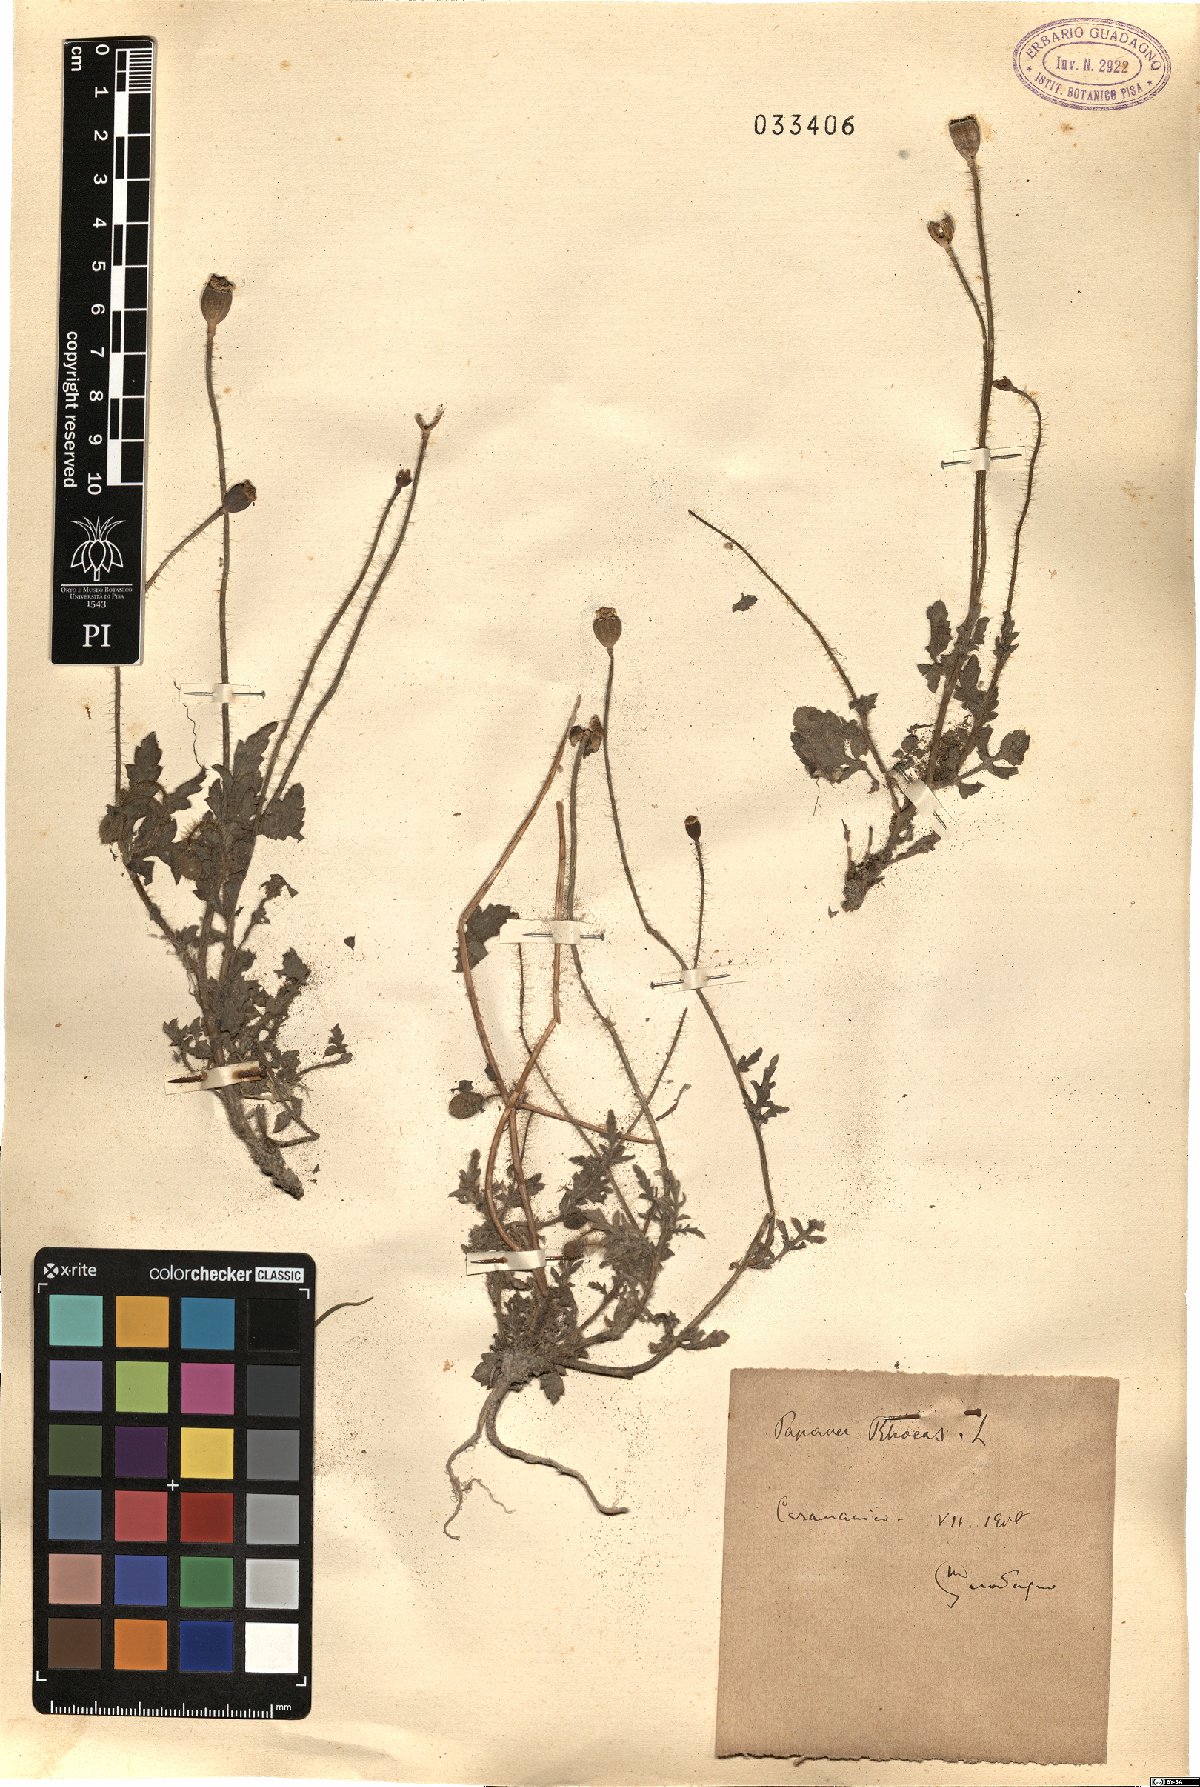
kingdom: Plantae
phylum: Tracheophyta
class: Magnoliopsida
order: Ranunculales
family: Papaveraceae
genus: Papaver
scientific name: Papaver rhoeas
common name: Corn poppy
